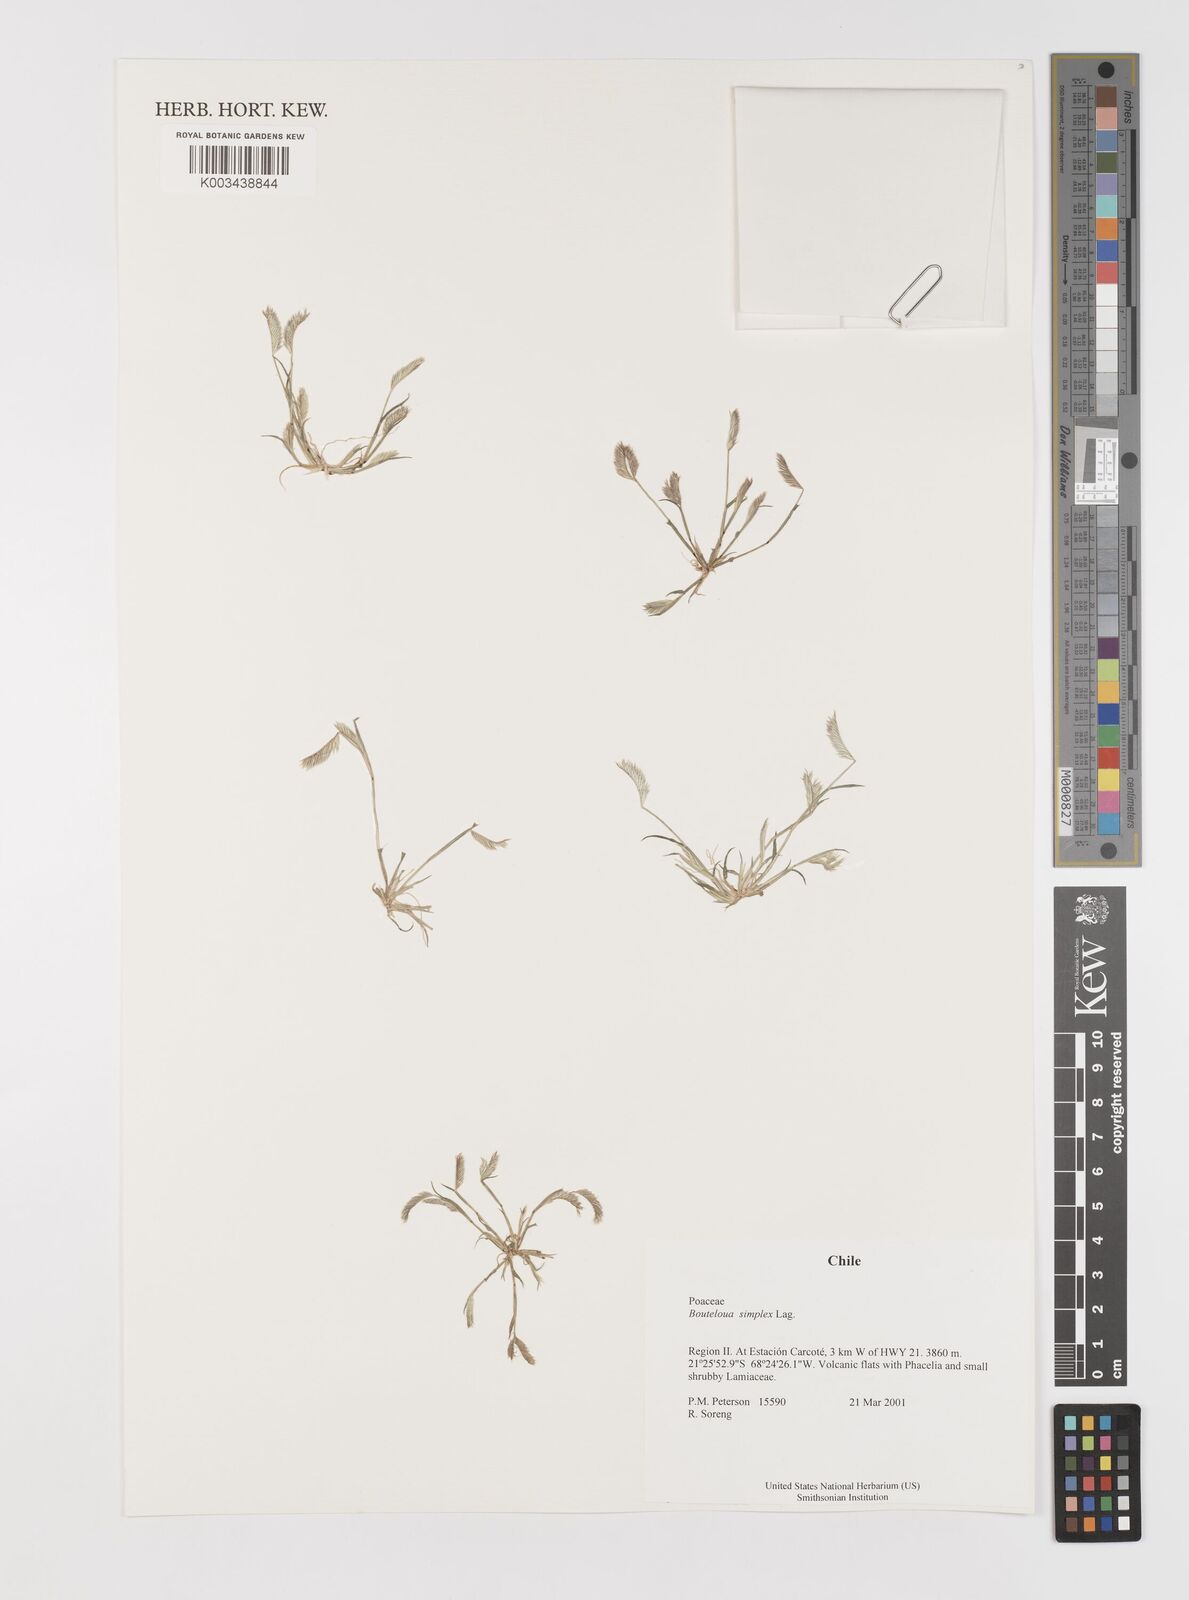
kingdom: Plantae
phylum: Tracheophyta
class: Liliopsida
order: Poales
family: Poaceae
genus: Bouteloua
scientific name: Bouteloua simplex
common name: Mat grama
